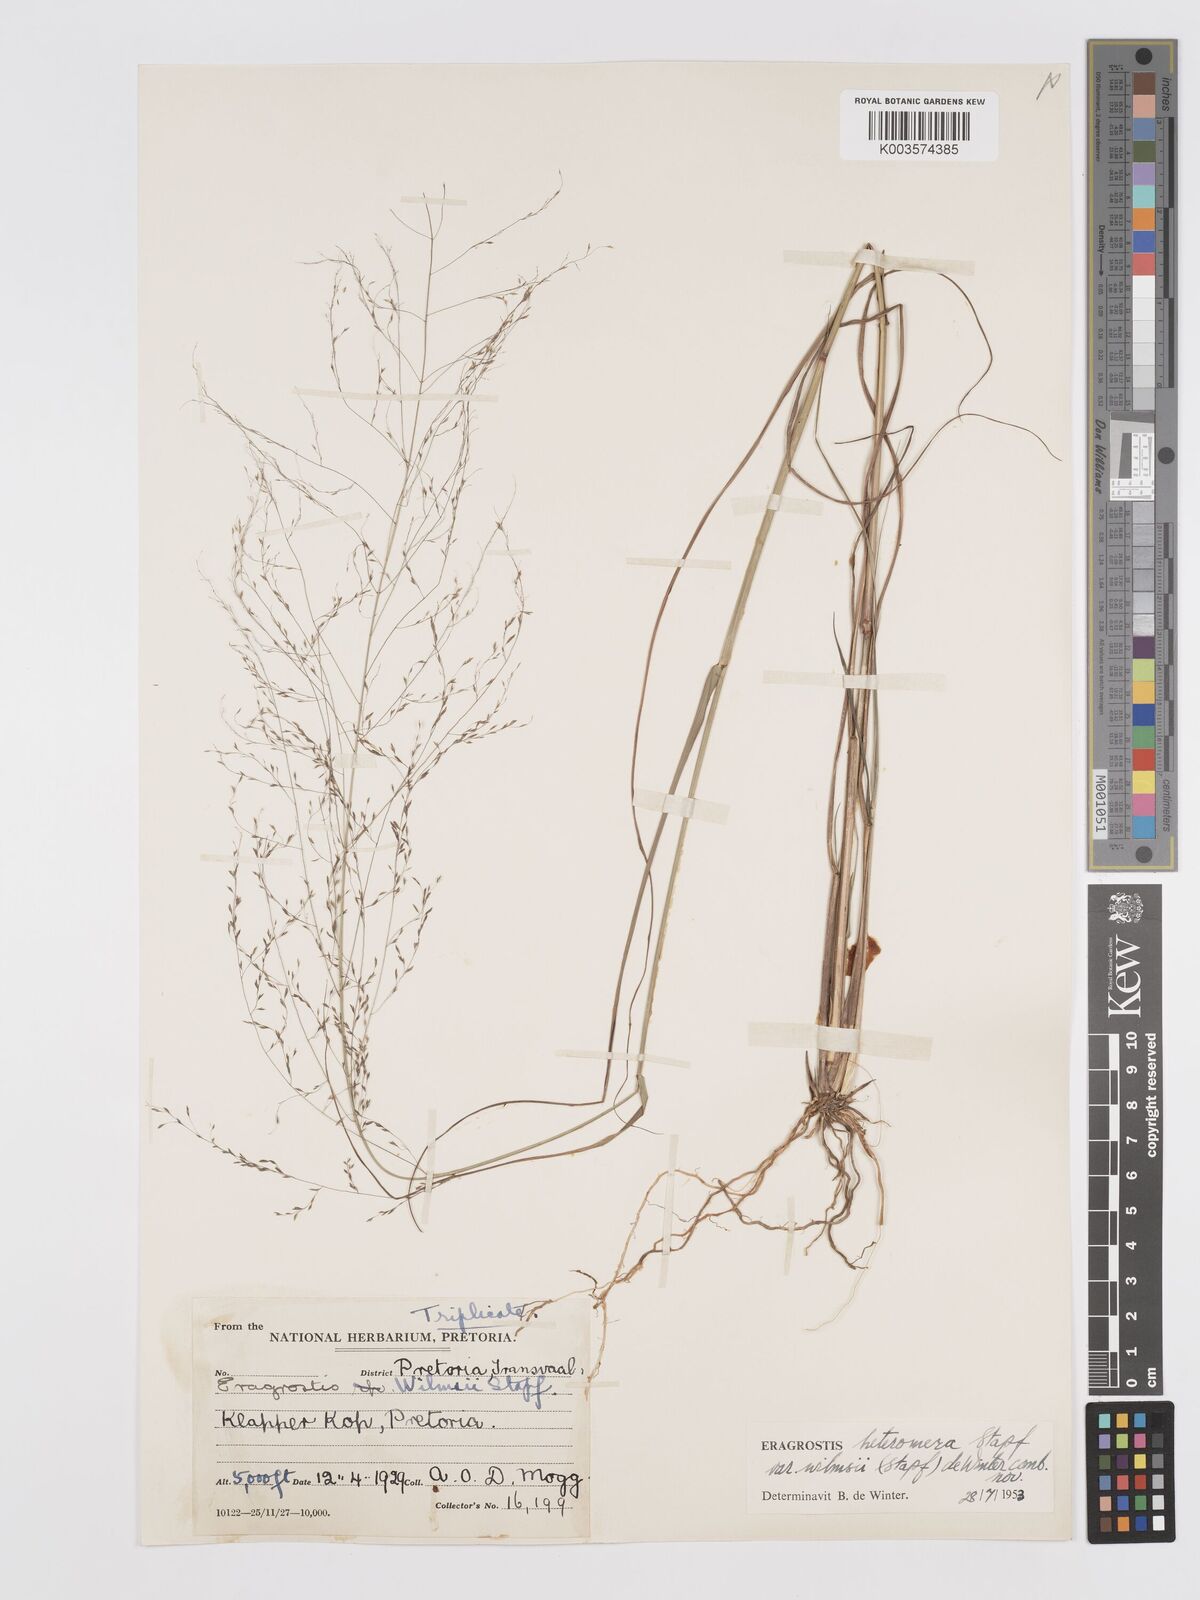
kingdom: Plantae
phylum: Tracheophyta
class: Liliopsida
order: Poales
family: Poaceae
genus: Eragrostis
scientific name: Eragrostis heteromera
